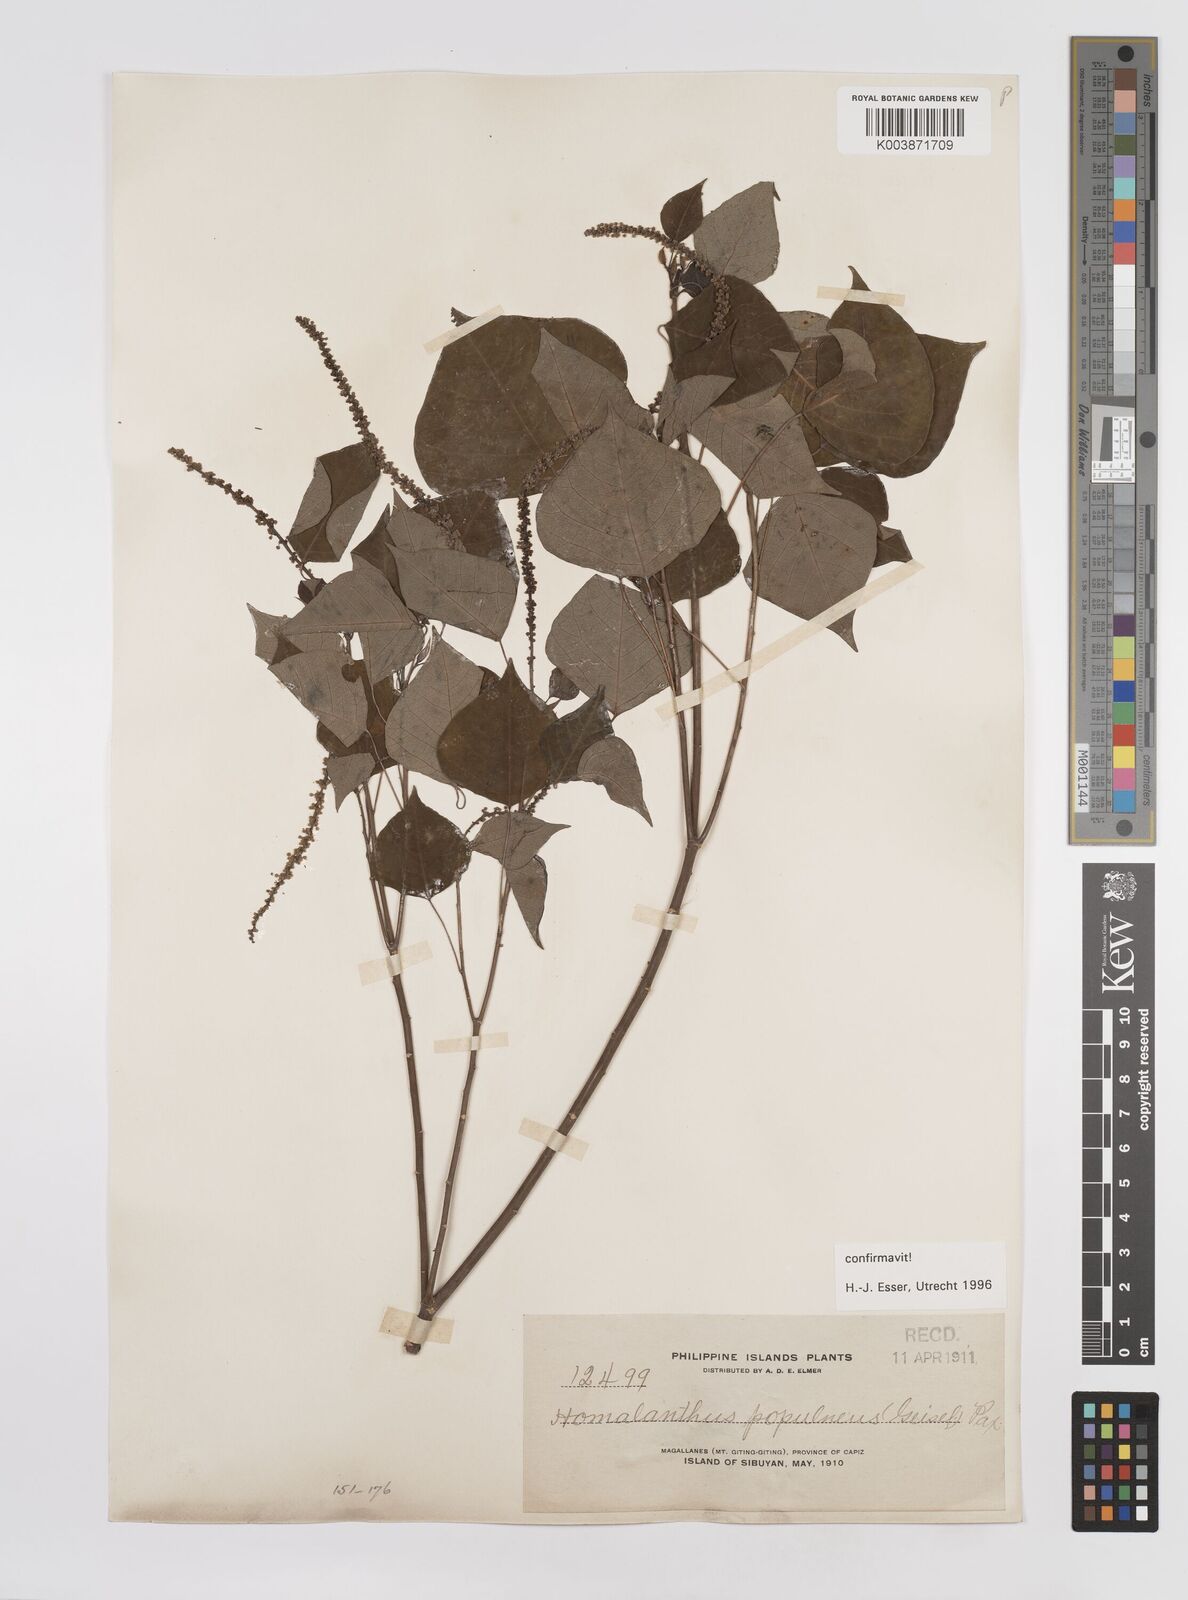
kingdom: Plantae
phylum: Tracheophyta
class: Magnoliopsida
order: Malpighiales
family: Euphorbiaceae
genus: Homalanthus
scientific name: Homalanthus populneus
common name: Spurge
